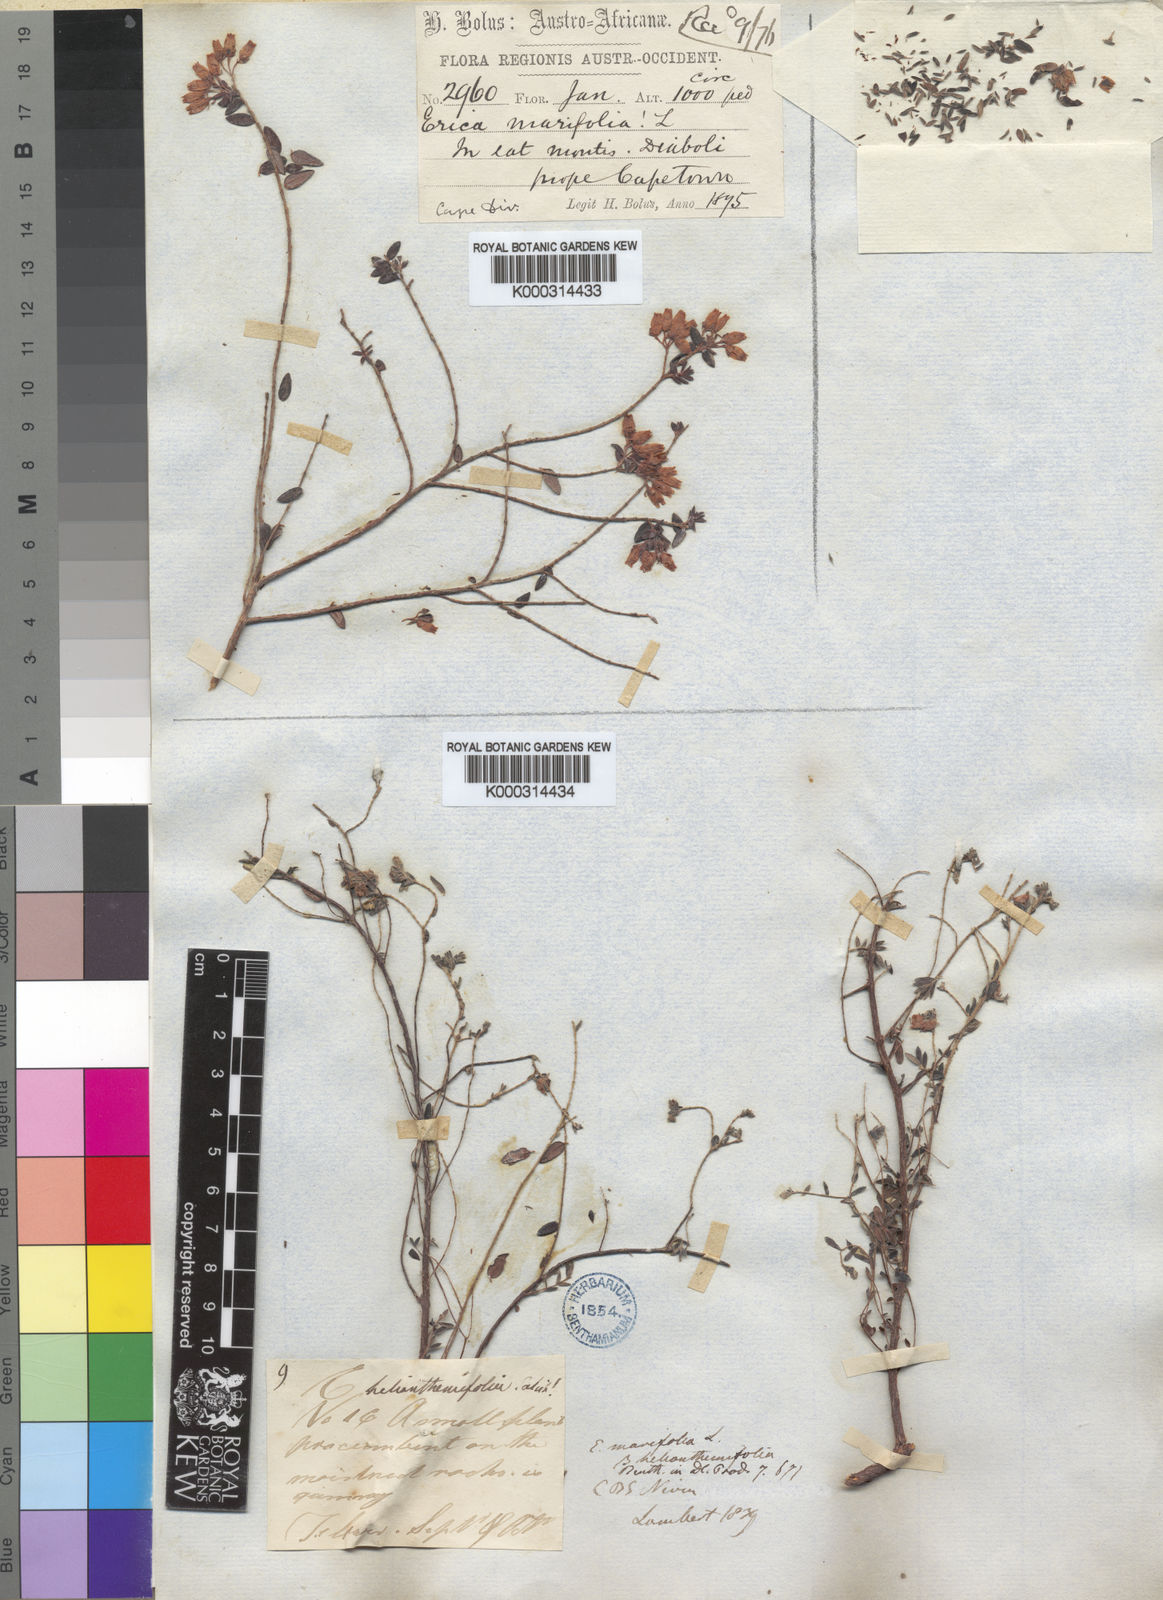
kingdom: Plantae
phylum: Tracheophyta
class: Magnoliopsida
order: Ericales
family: Ericaceae
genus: Erica
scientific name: Erica
